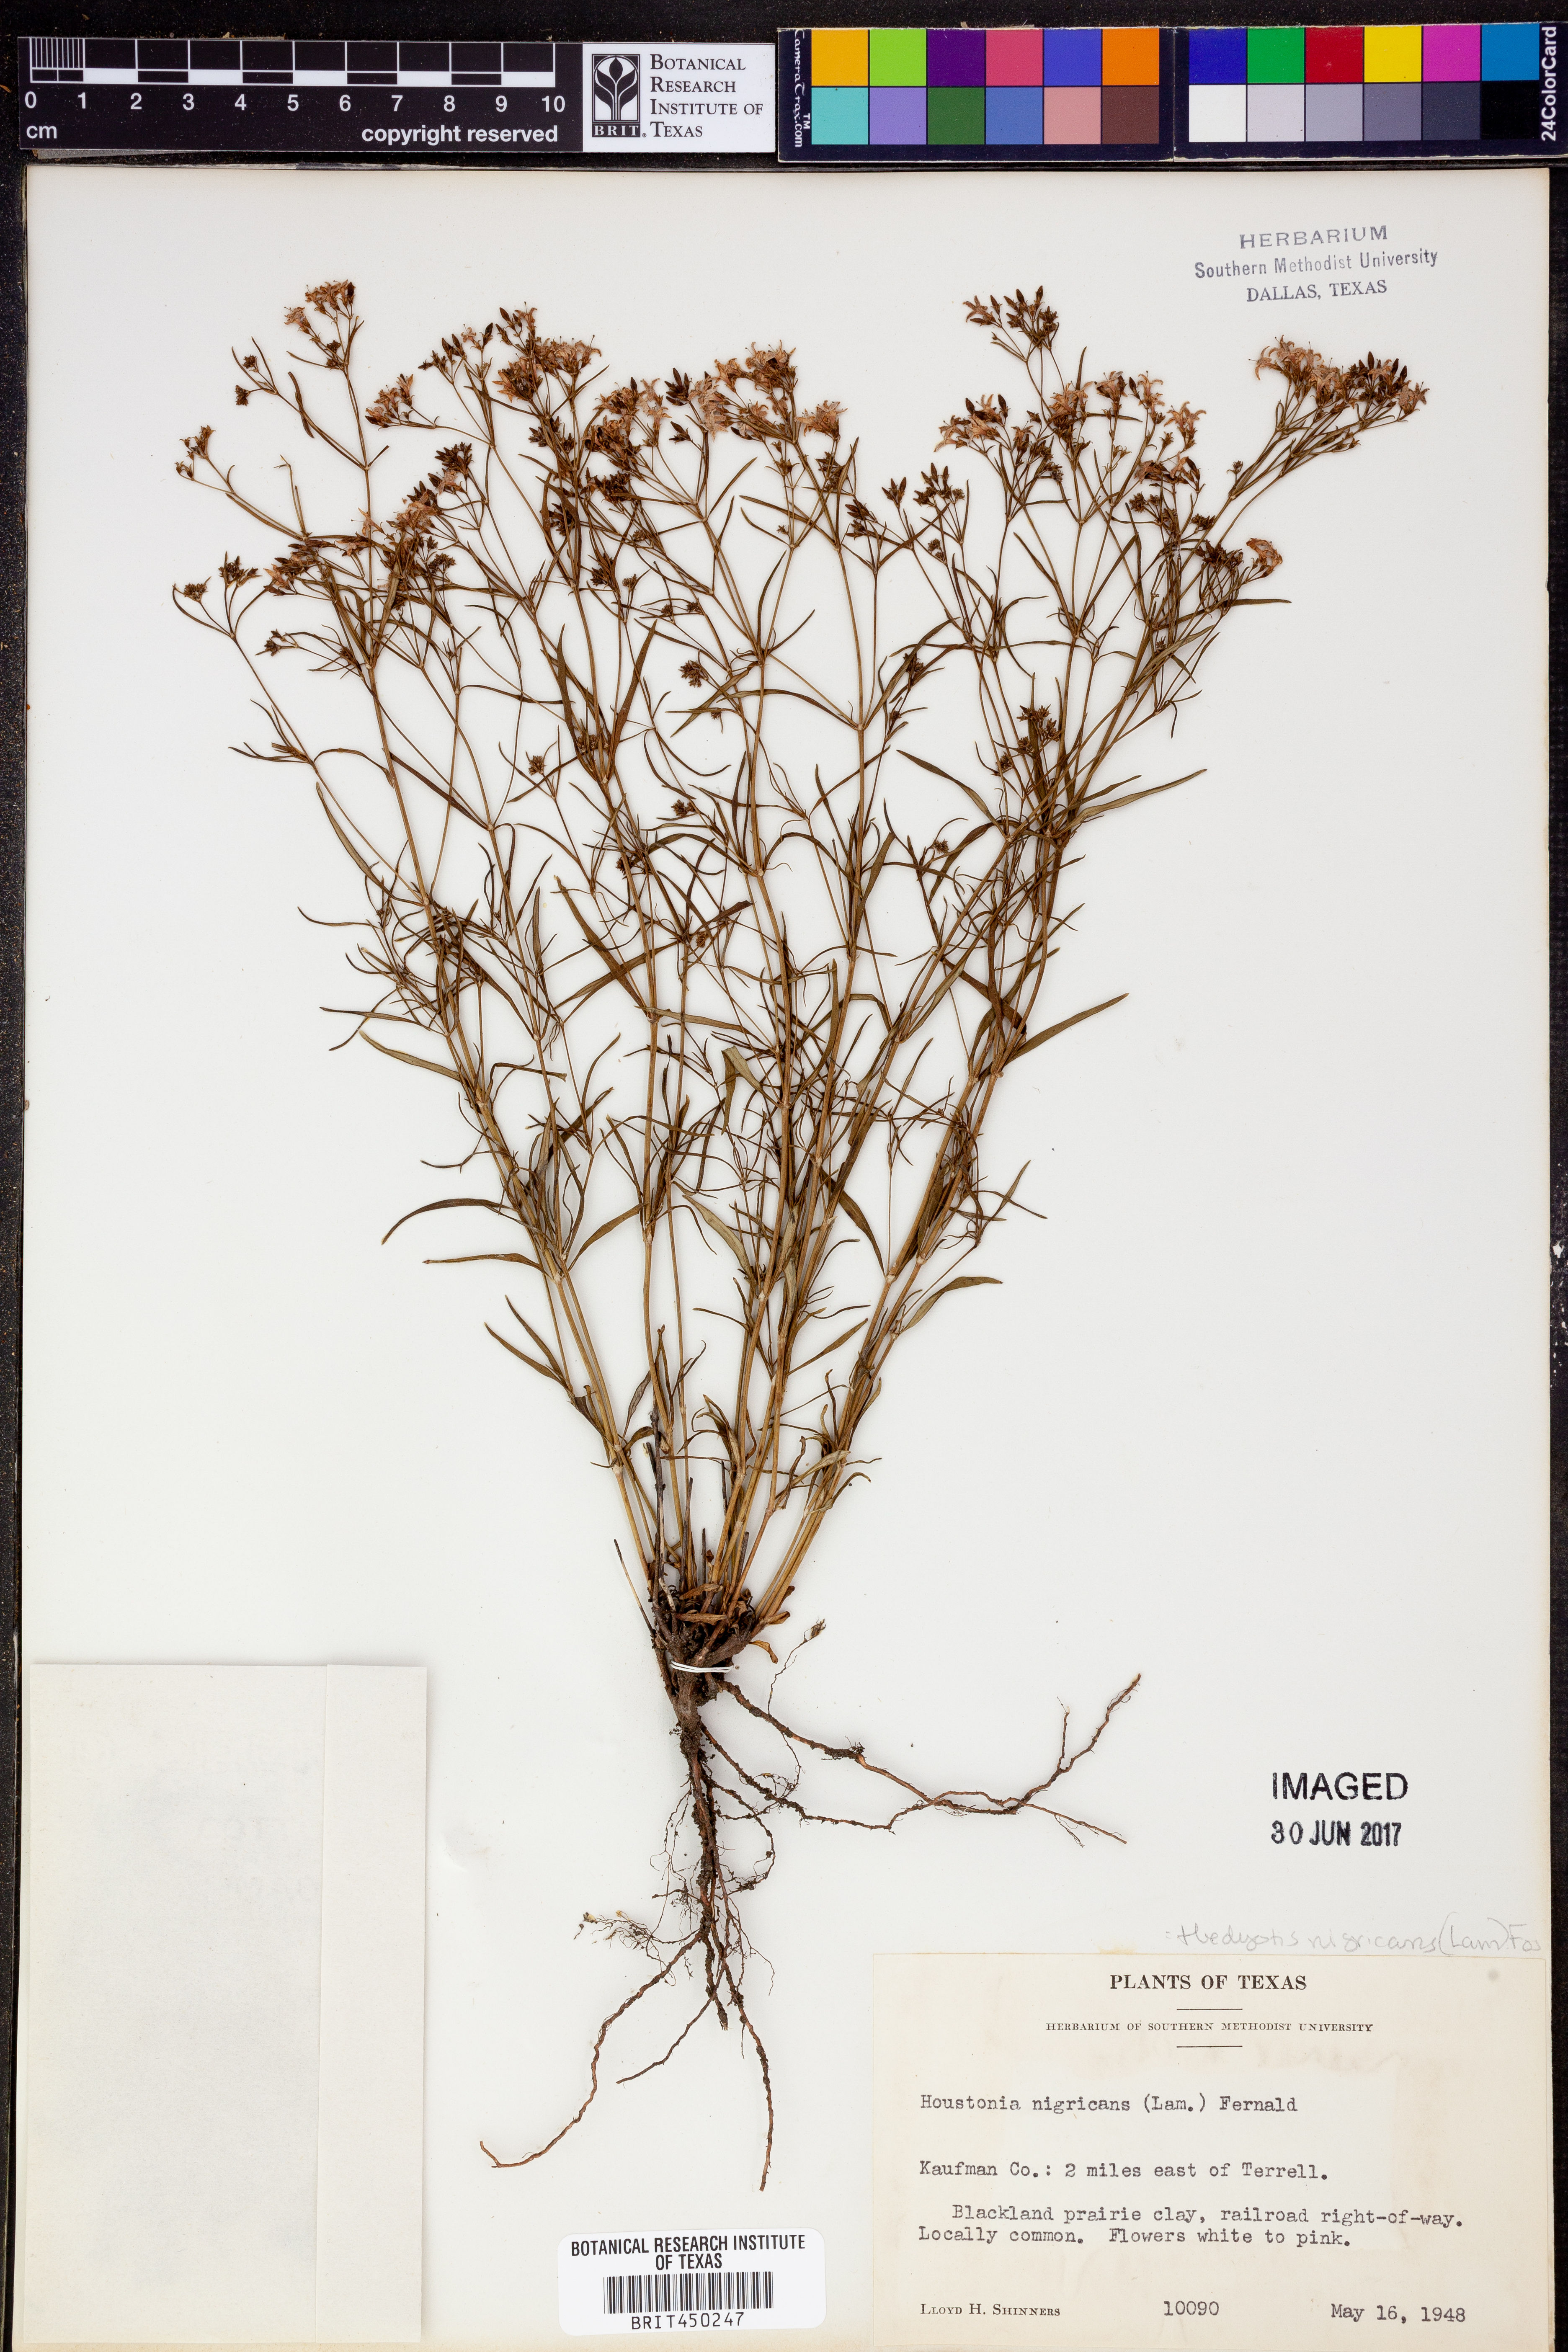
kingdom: Plantae
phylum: Tracheophyta
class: Magnoliopsida
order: Gentianales
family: Rubiaceae
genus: Stenaria
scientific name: Stenaria nigricans
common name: Diamondflowers
